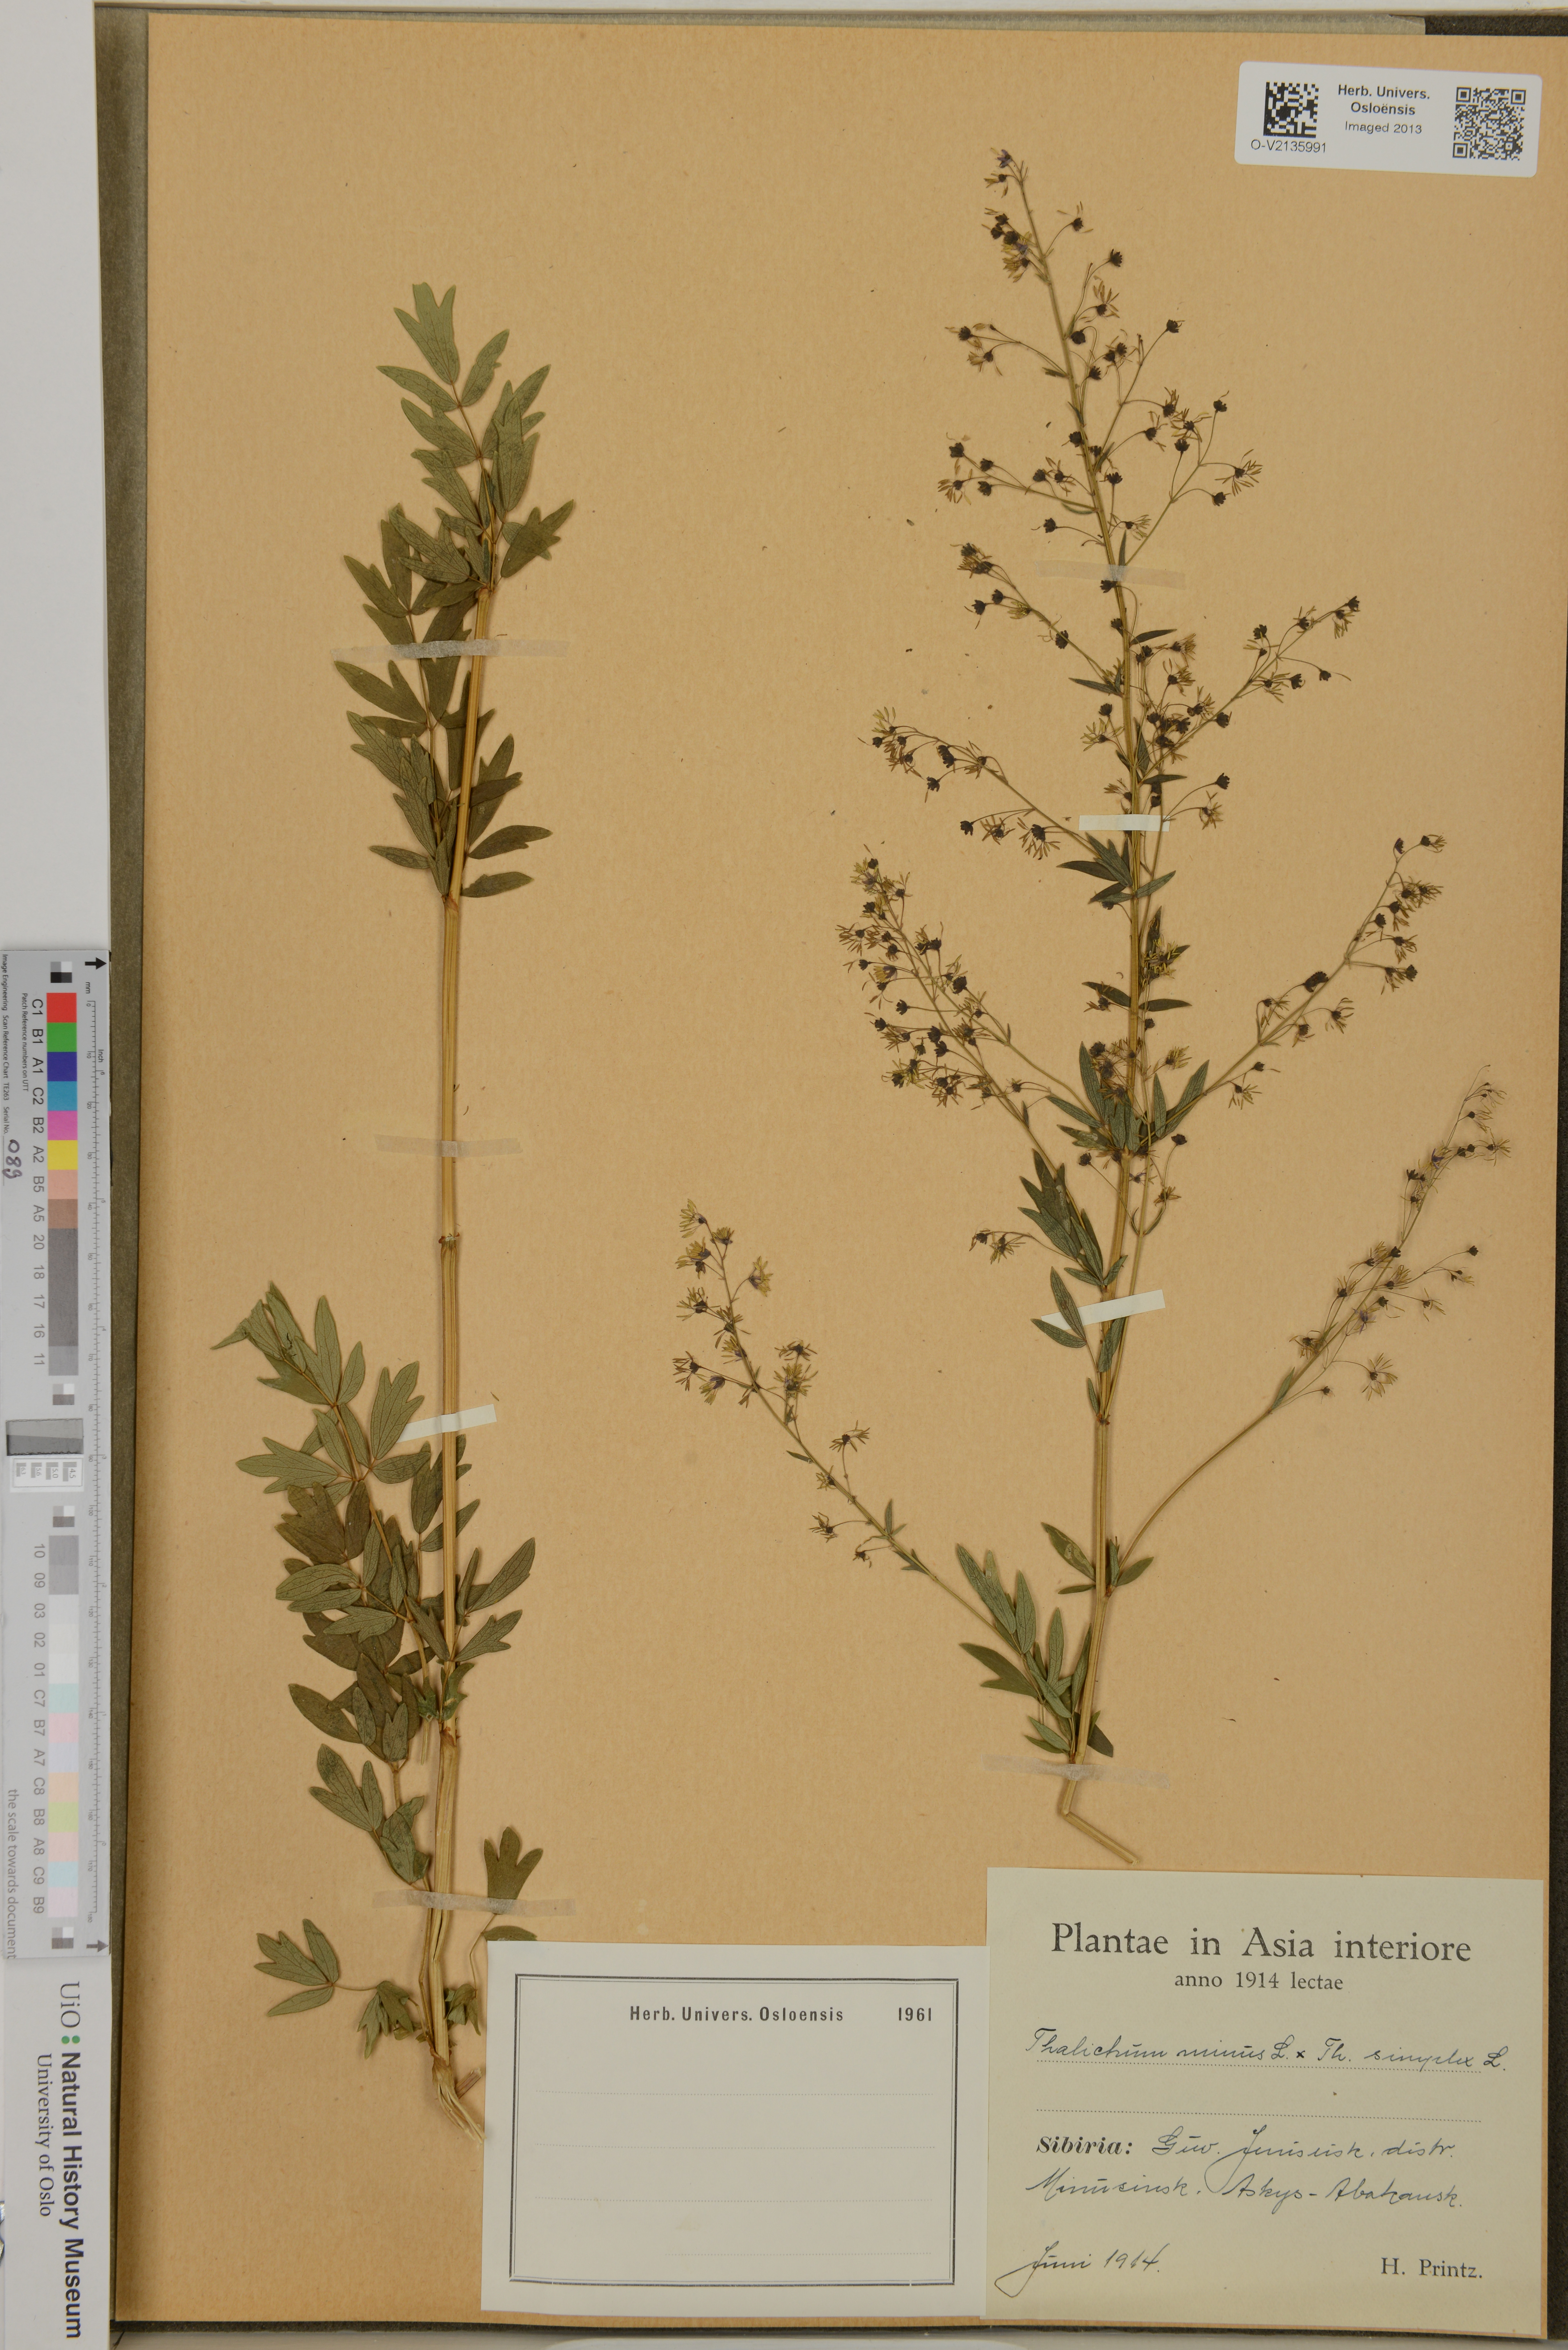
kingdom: Plantae
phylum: Tracheophyta
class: Magnoliopsida
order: Ranunculales
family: Ranunculaceae
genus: Thalictrum
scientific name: Thalictrum
